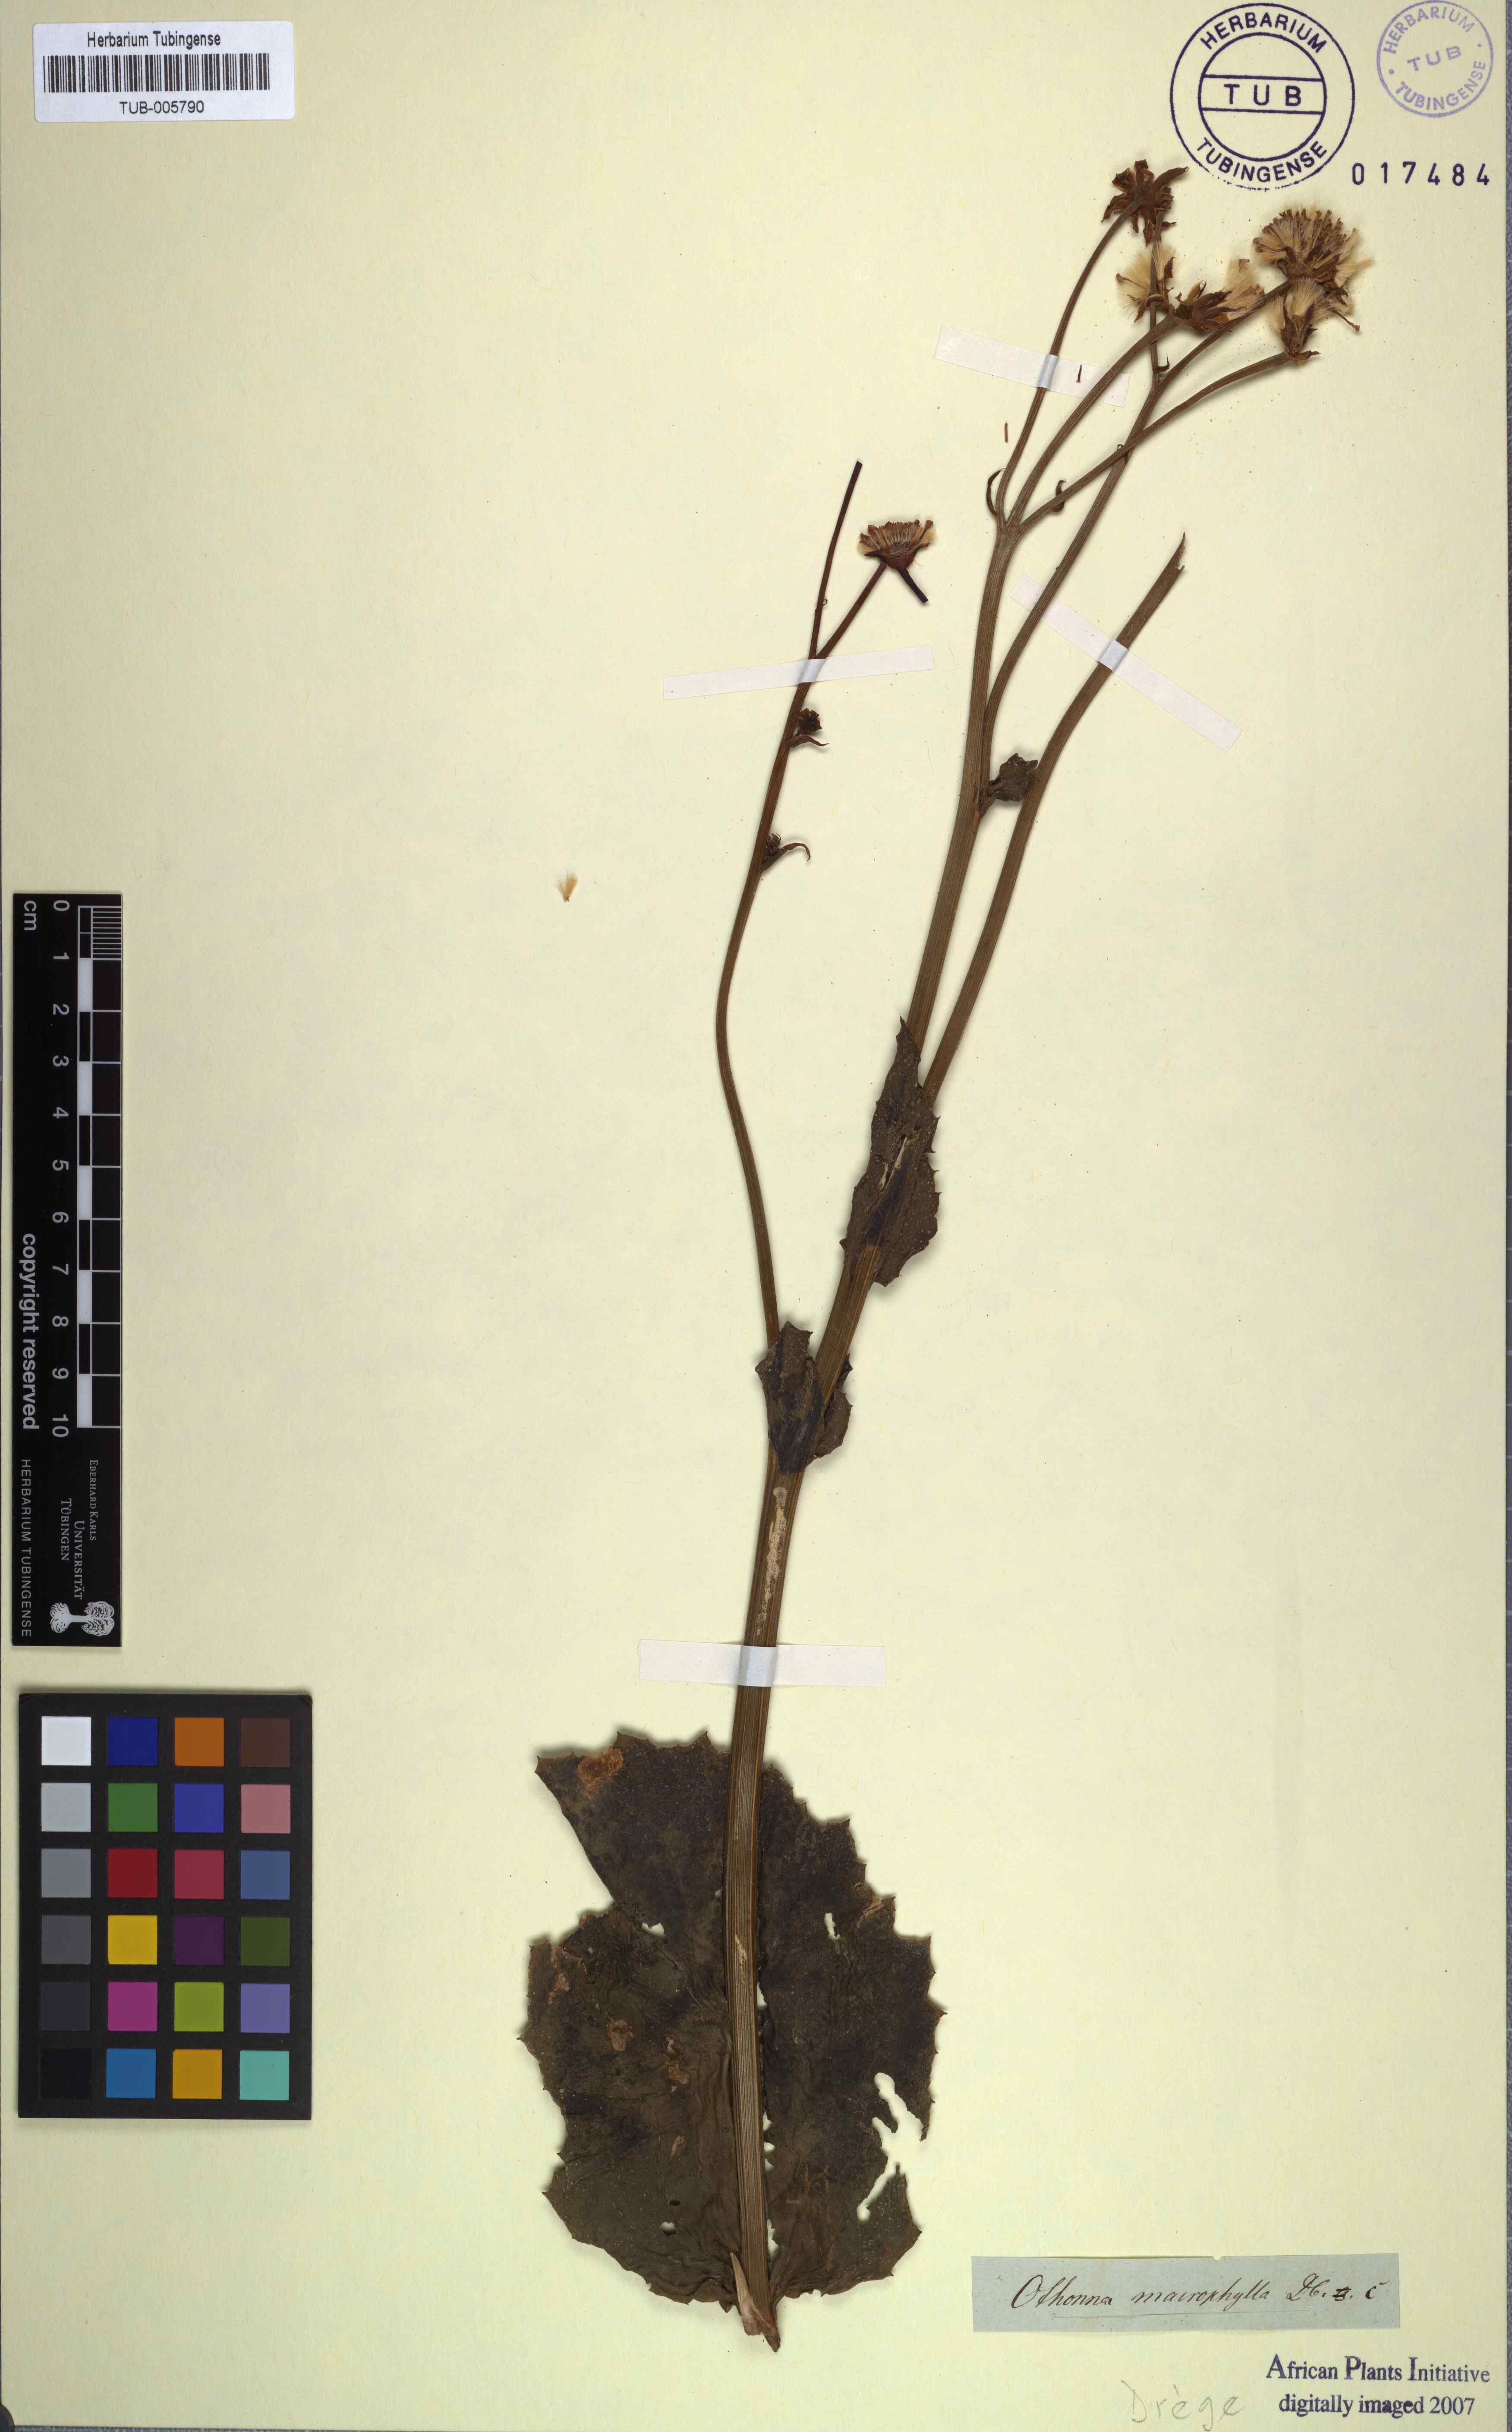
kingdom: Plantae
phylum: Tracheophyta
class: Magnoliopsida
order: Asterales
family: Asteraceae
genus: Othonna
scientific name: Othonna macrophylla
